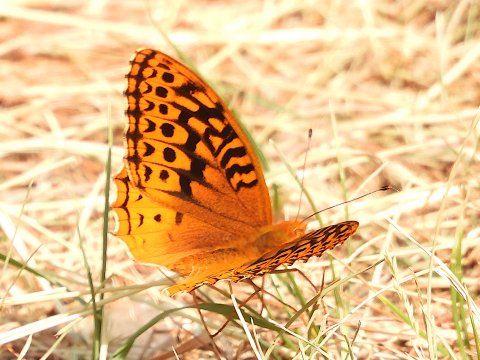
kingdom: Animalia
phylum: Arthropoda
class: Insecta
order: Lepidoptera
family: Nymphalidae
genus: Speyeria
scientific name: Speyeria cybele
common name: Great Spangled Fritillary
